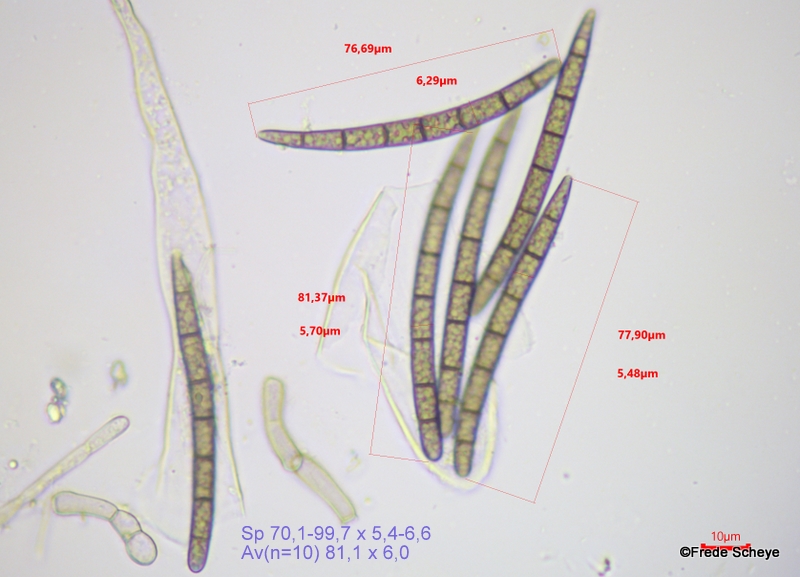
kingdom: Fungi
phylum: Ascomycota
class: Geoglossomycetes
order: Geoglossales
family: Geoglossaceae
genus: Geoglossum
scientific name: Geoglossum cookeianum
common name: bred jordtunge
